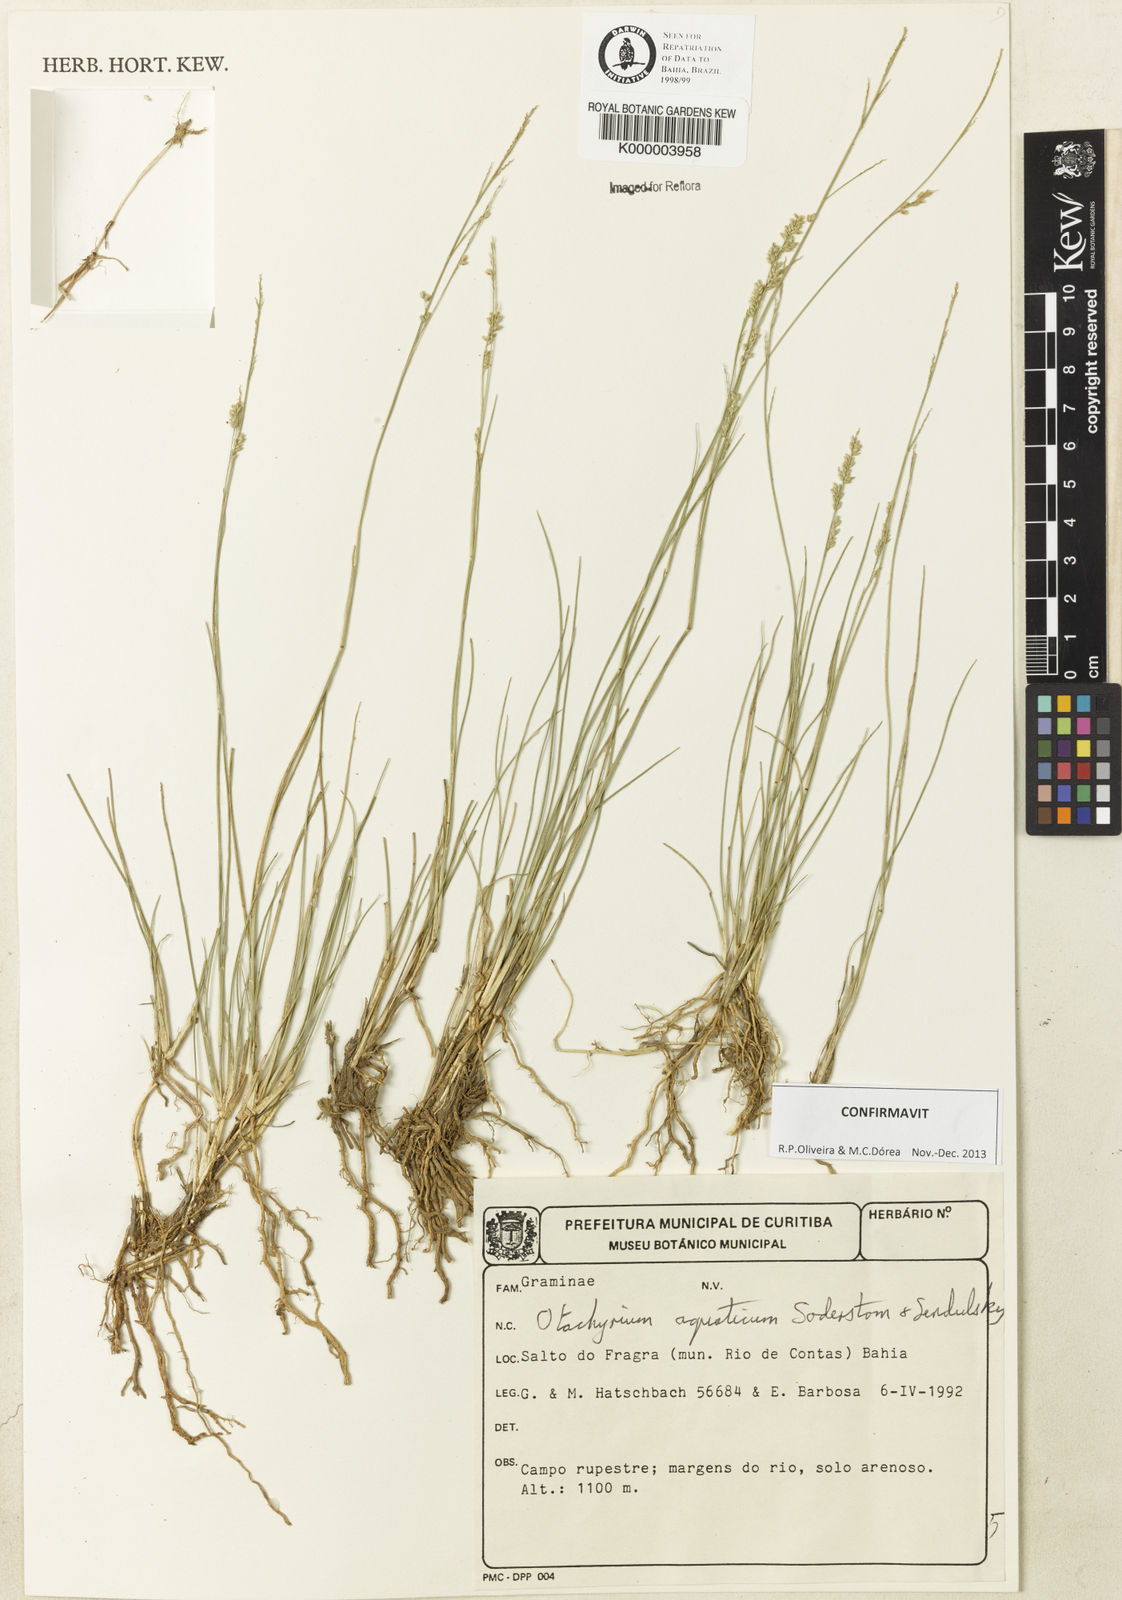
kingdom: Plantae
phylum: Tracheophyta
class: Liliopsida
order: Poales
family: Poaceae
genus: Otachyrium
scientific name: Otachyrium aquaticum
